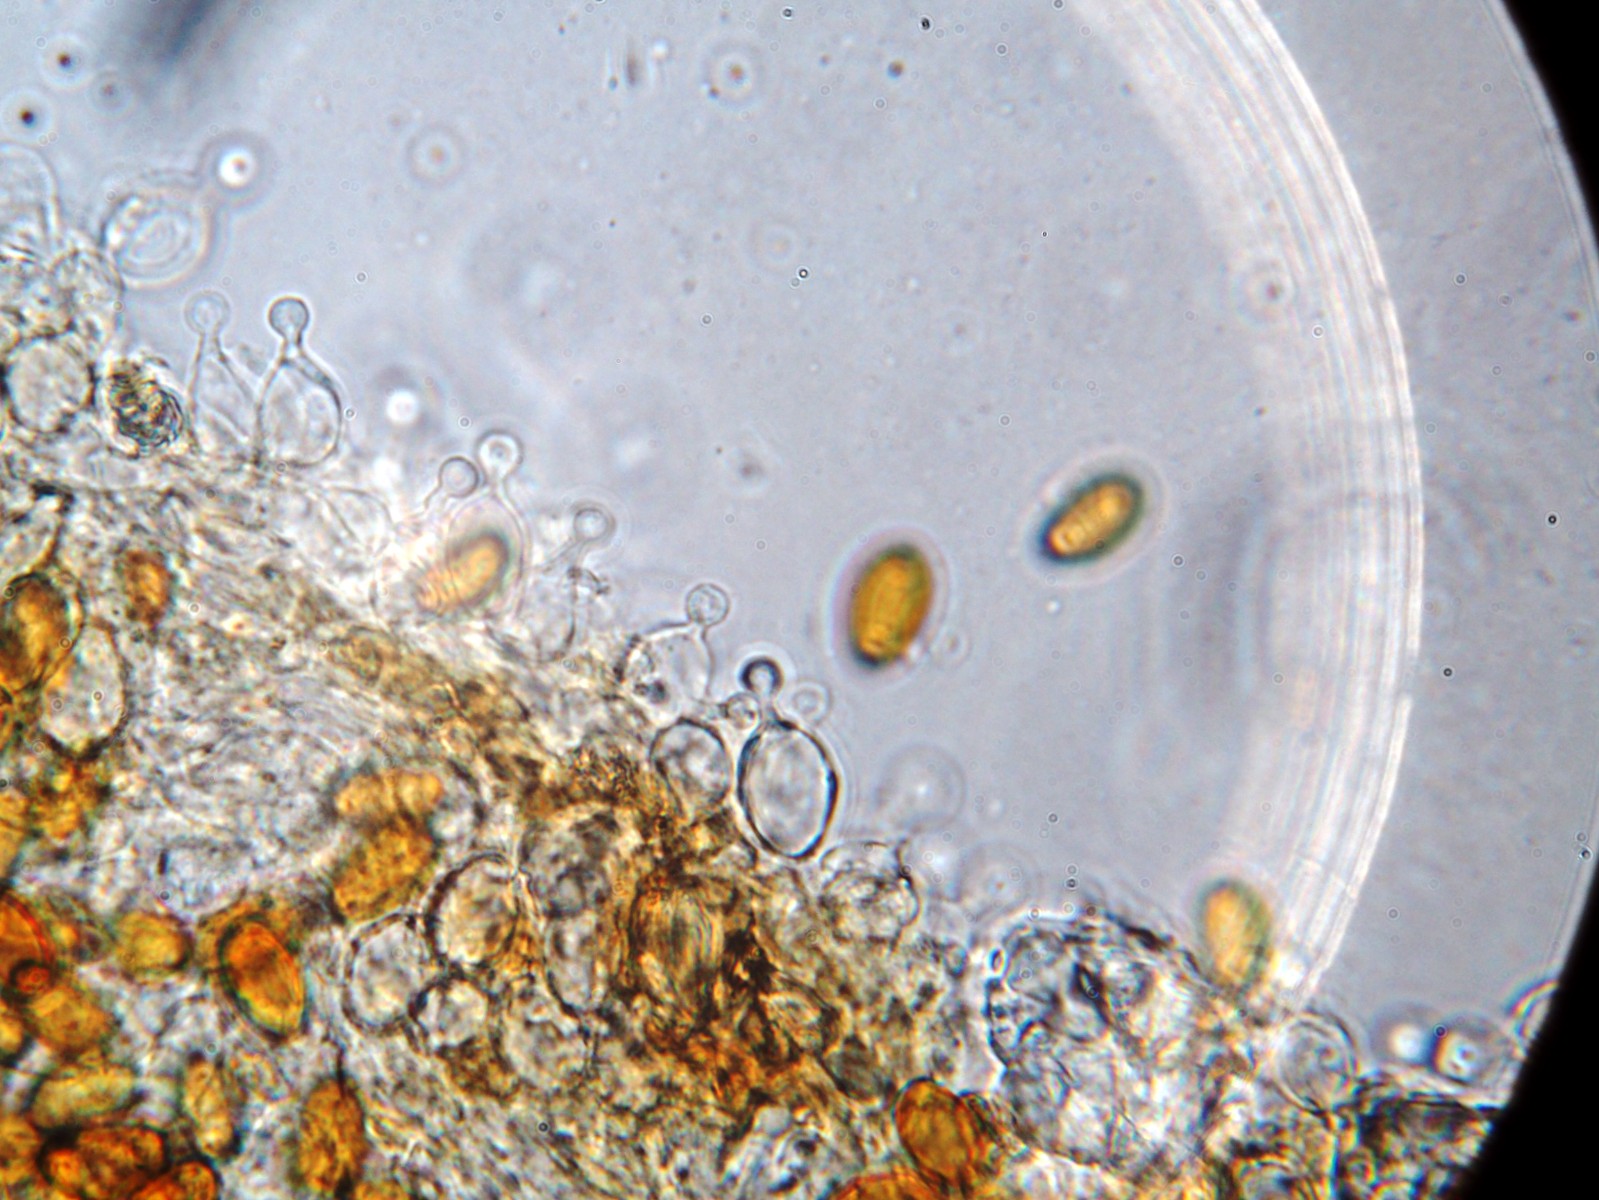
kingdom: Fungi
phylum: Basidiomycota
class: Agaricomycetes
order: Agaricales
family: Bolbitiaceae
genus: Conocybe
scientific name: Conocybe
